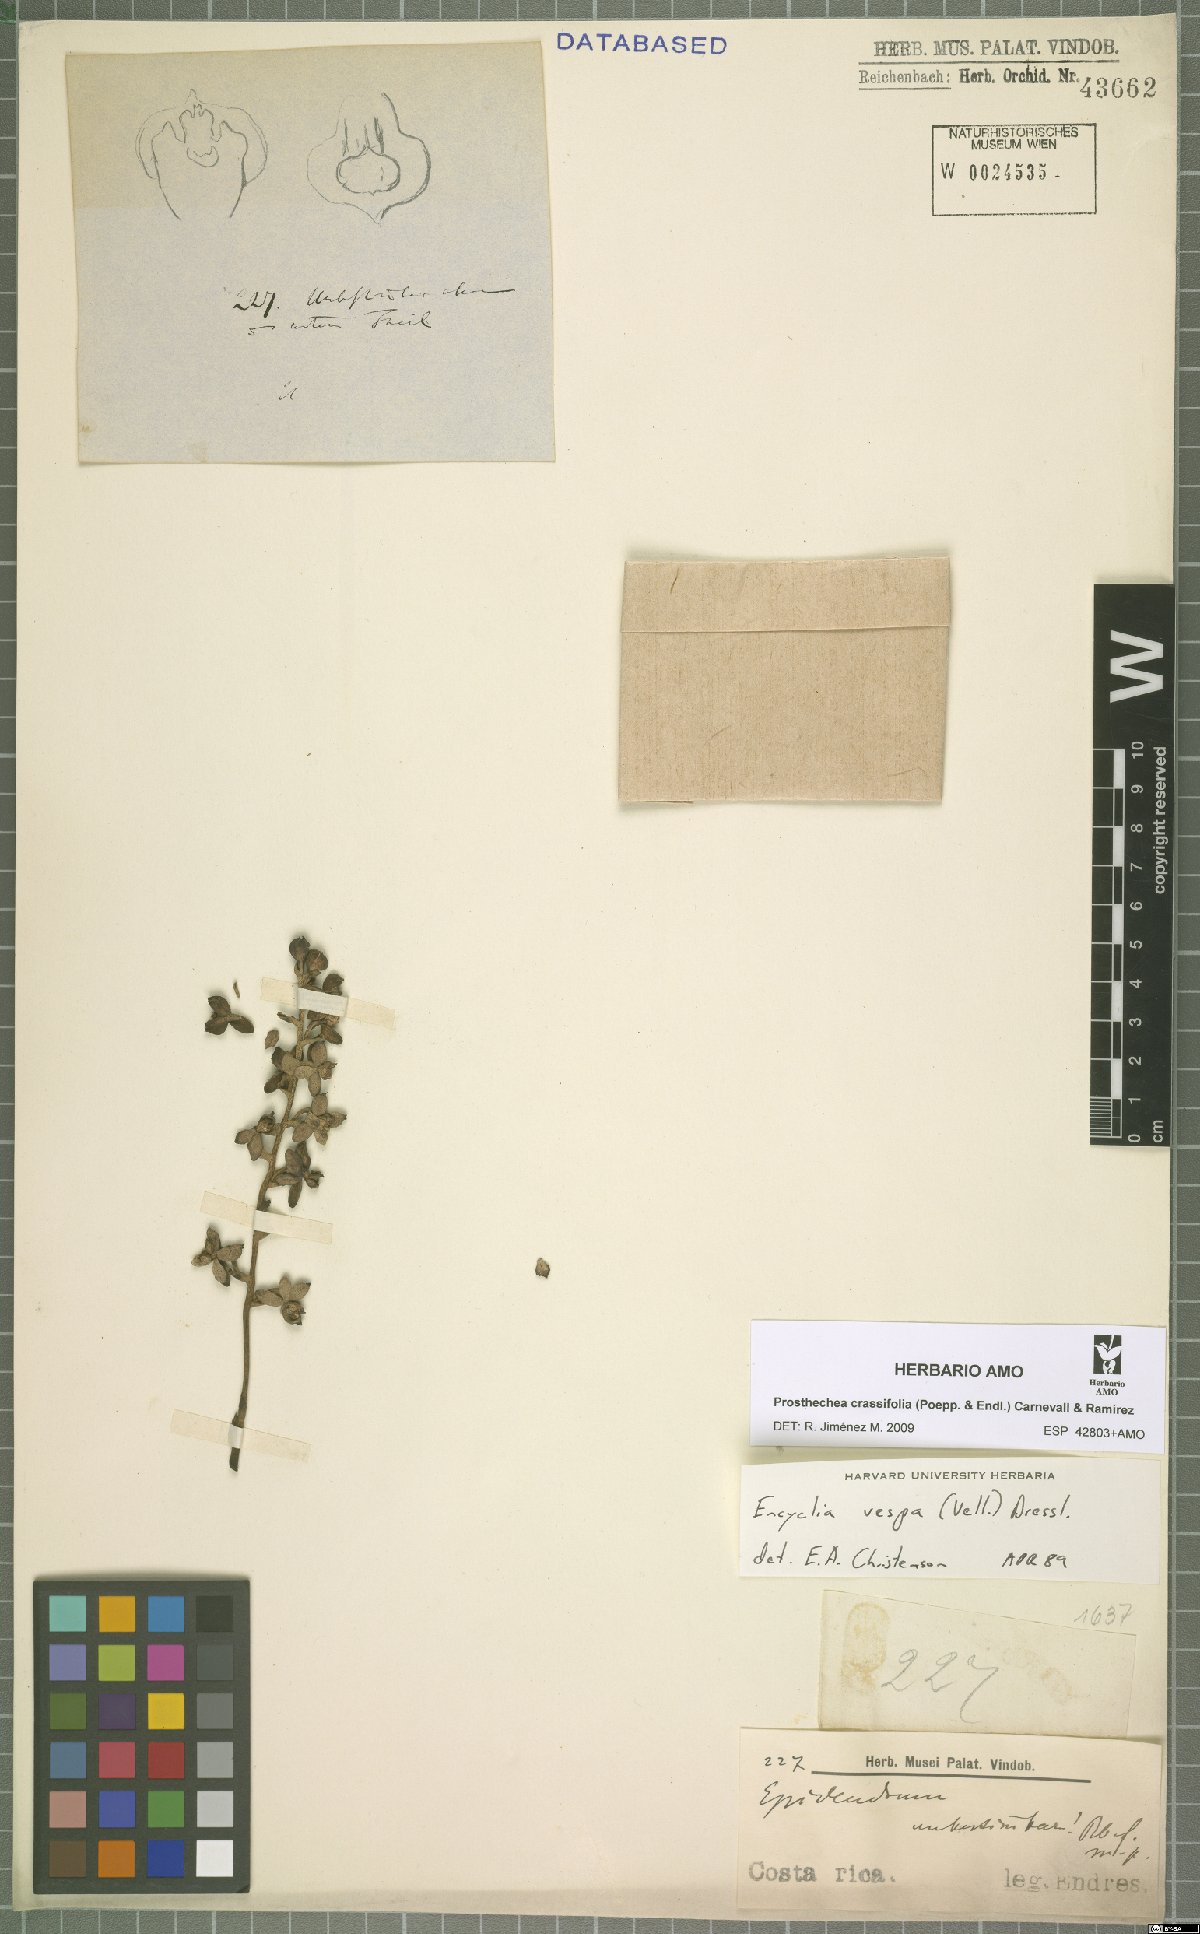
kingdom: Plantae
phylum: Tracheophyta
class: Liliopsida
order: Asparagales
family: Orchidaceae
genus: Prosthechea
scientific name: Prosthechea
